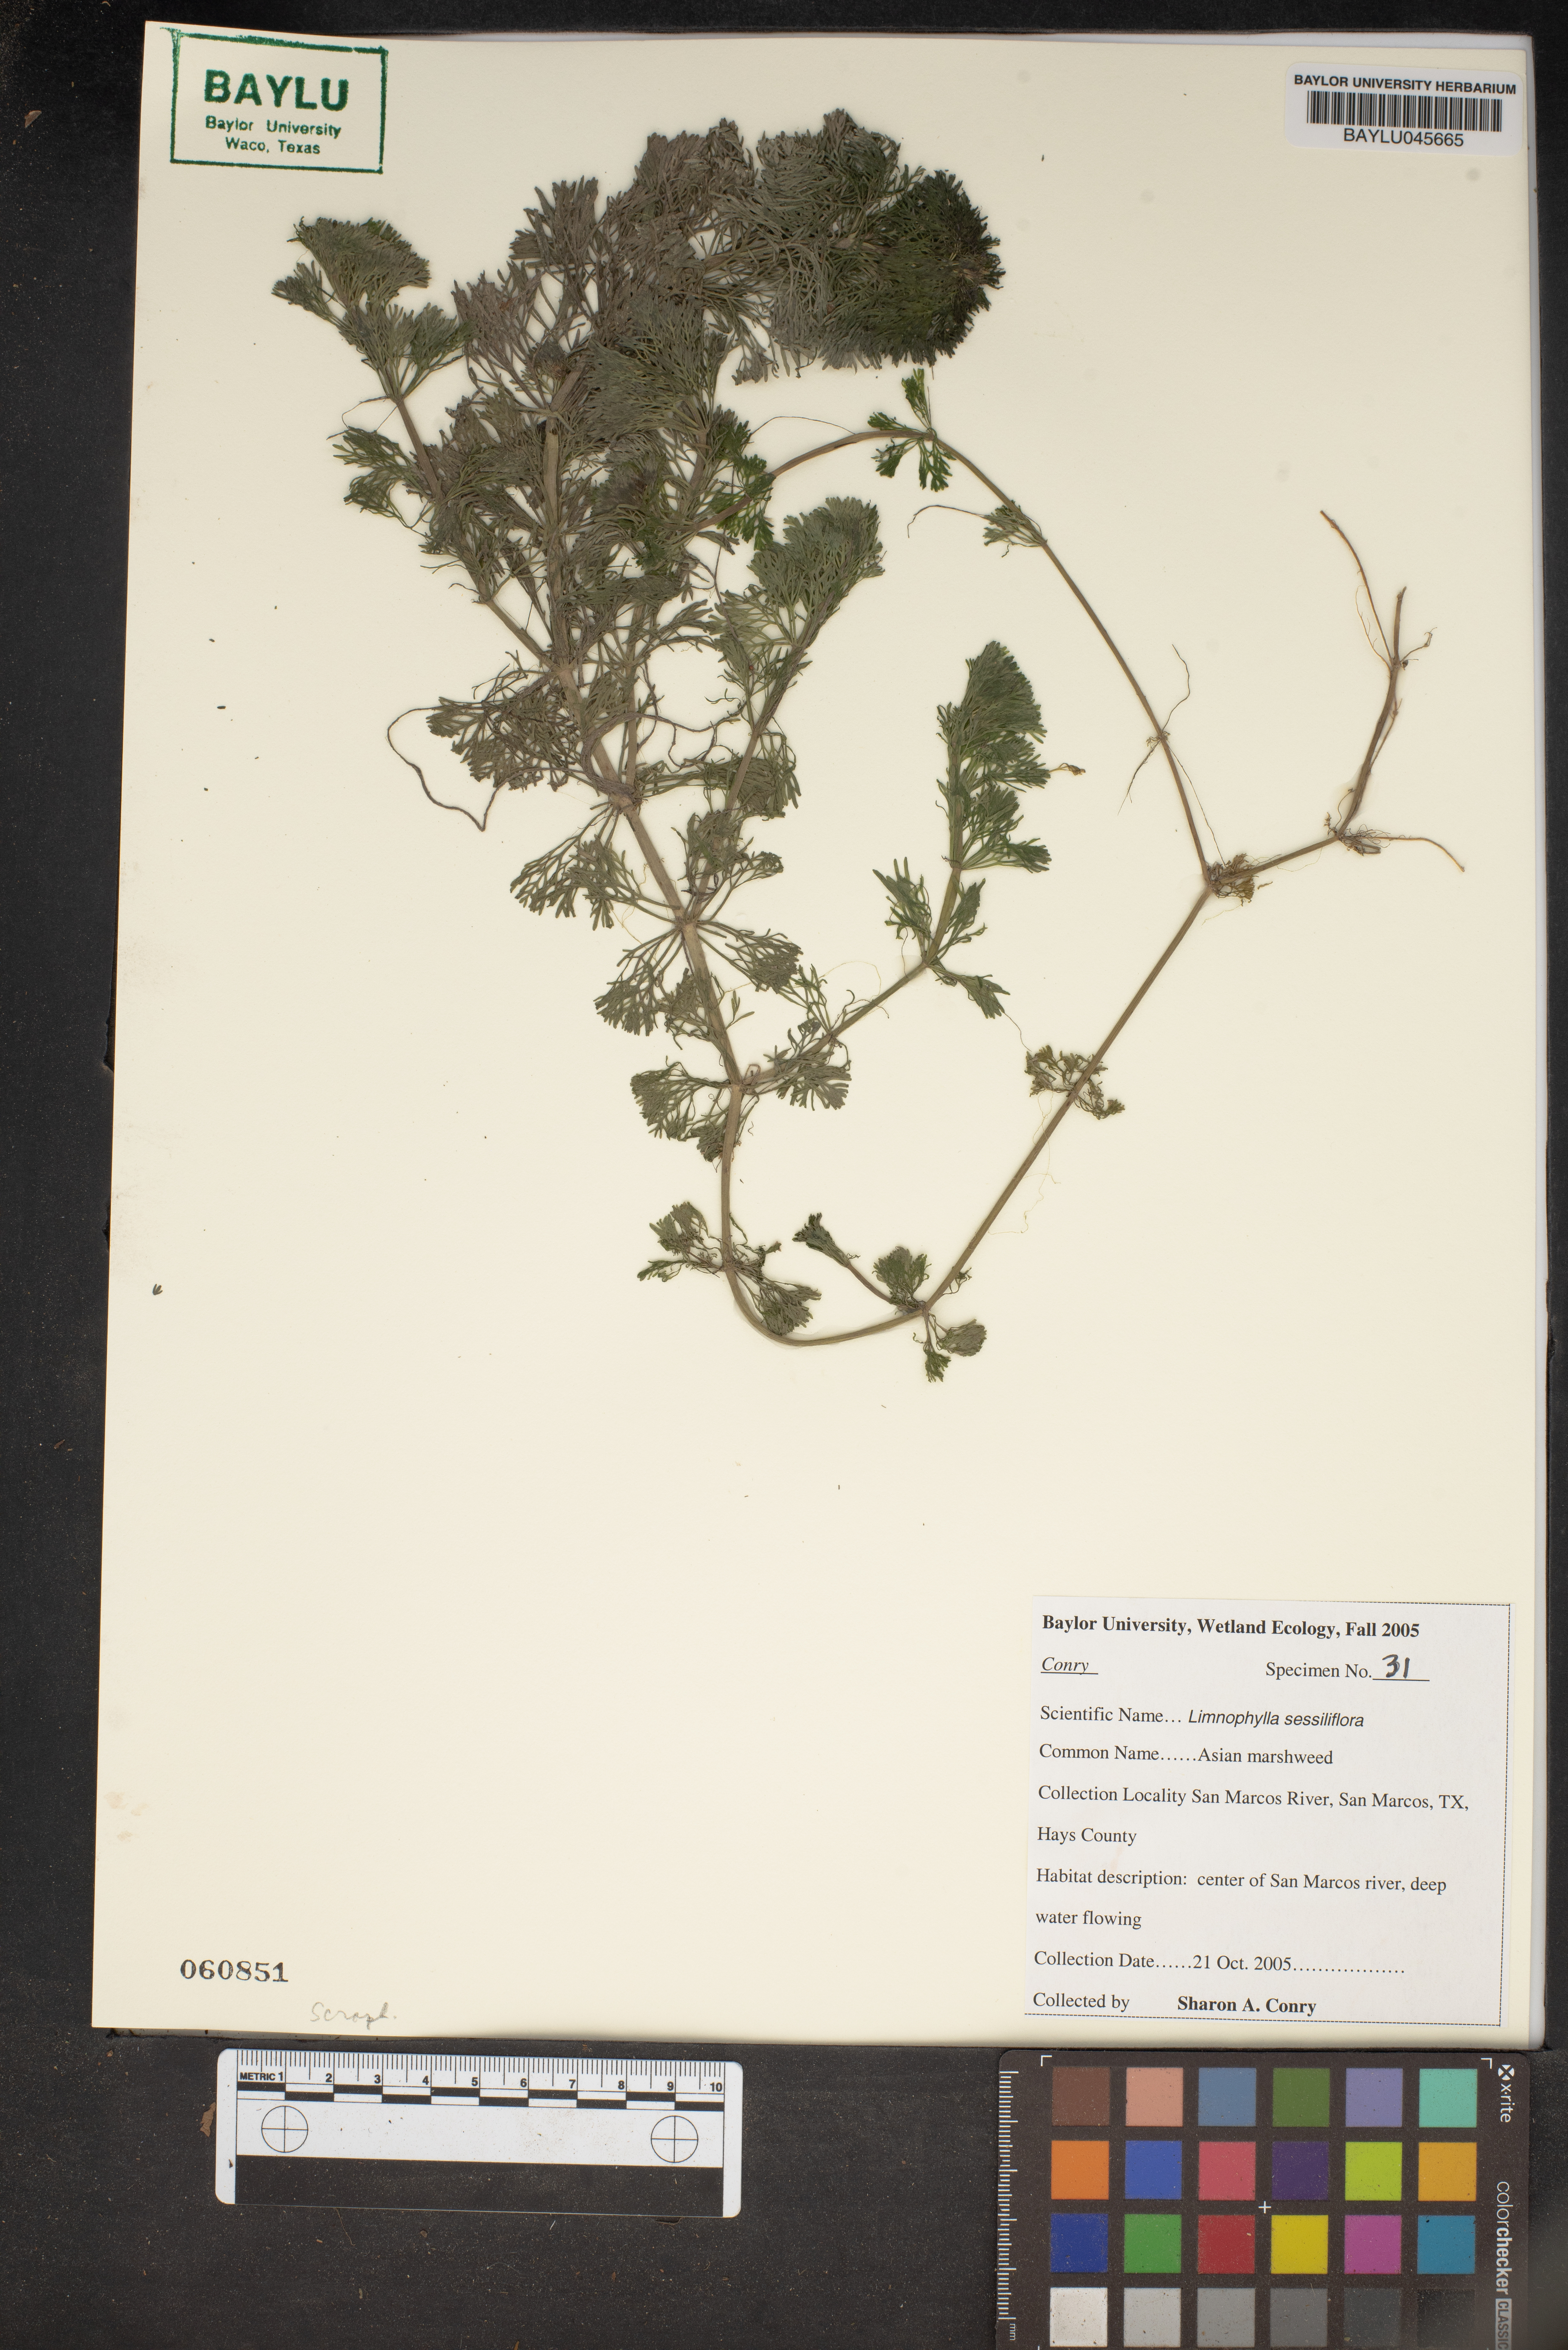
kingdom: Plantae
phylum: Tracheophyta
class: Magnoliopsida
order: Lamiales
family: Plantaginaceae
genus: Limnophila
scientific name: Limnophila sessiliflora
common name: Asian marshweed
